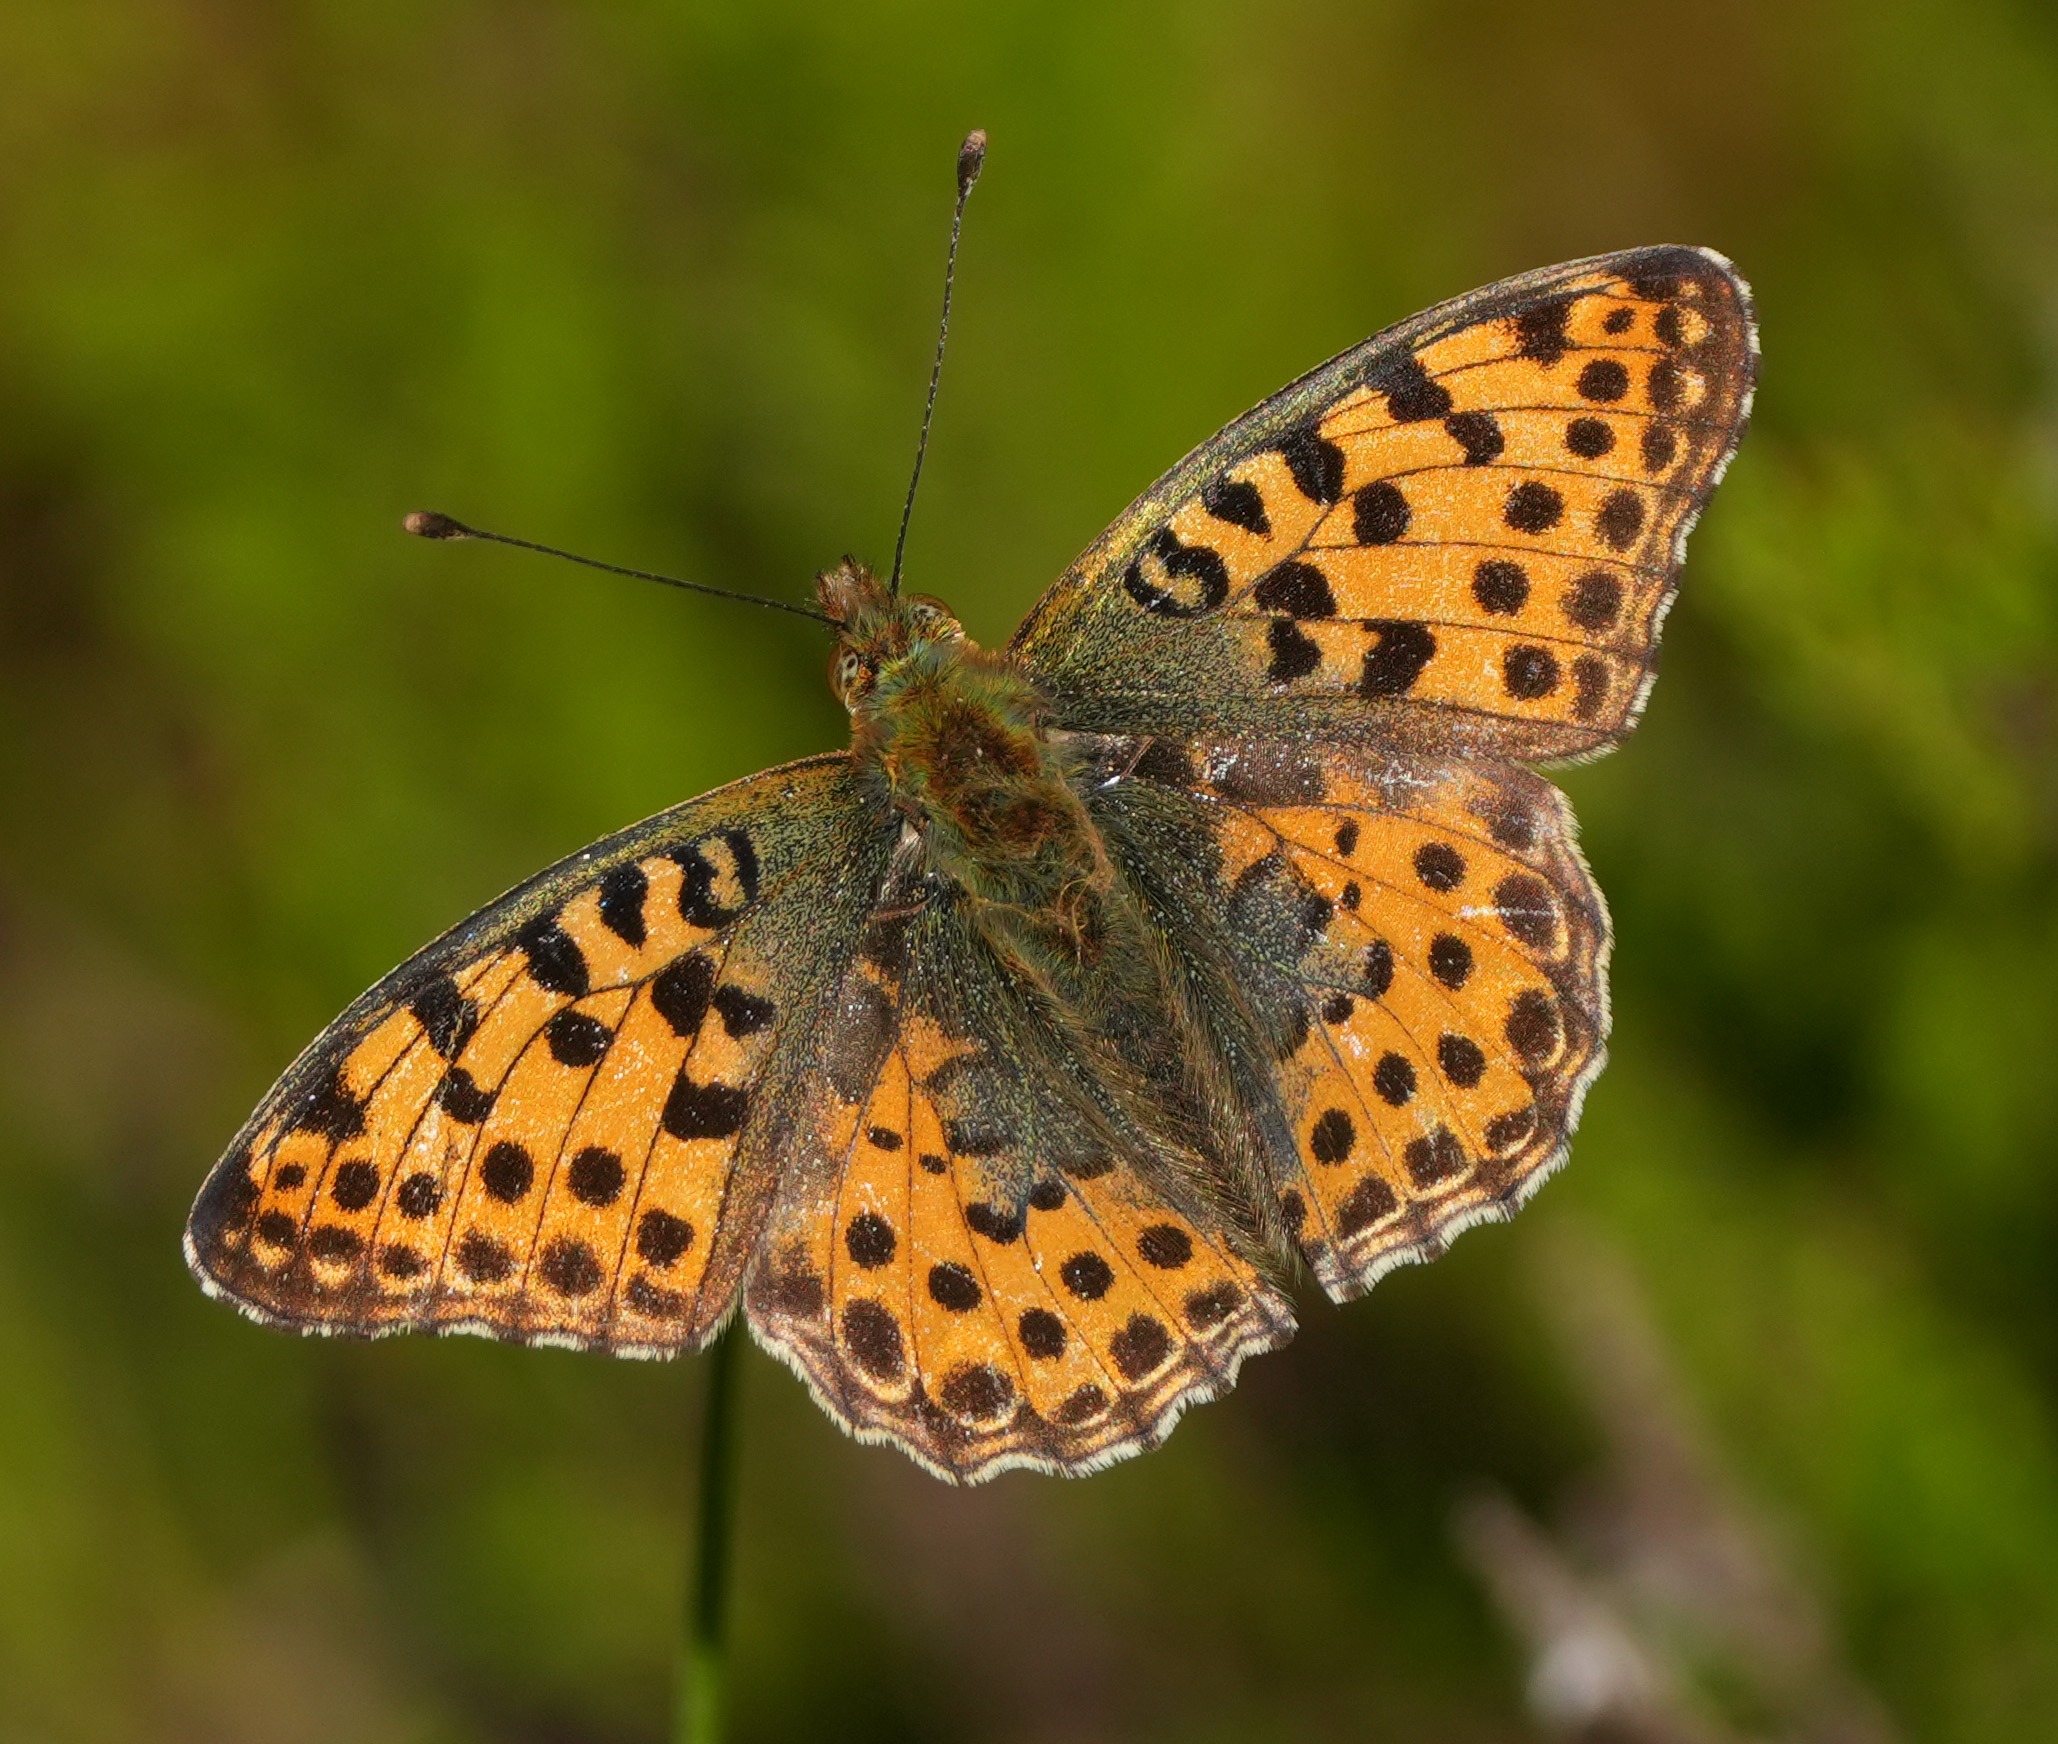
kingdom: Animalia
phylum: Arthropoda
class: Insecta
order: Lepidoptera
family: Nymphalidae
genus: Issoria
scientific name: Issoria lathonia
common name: Storplettet perlemorsommerfugl
